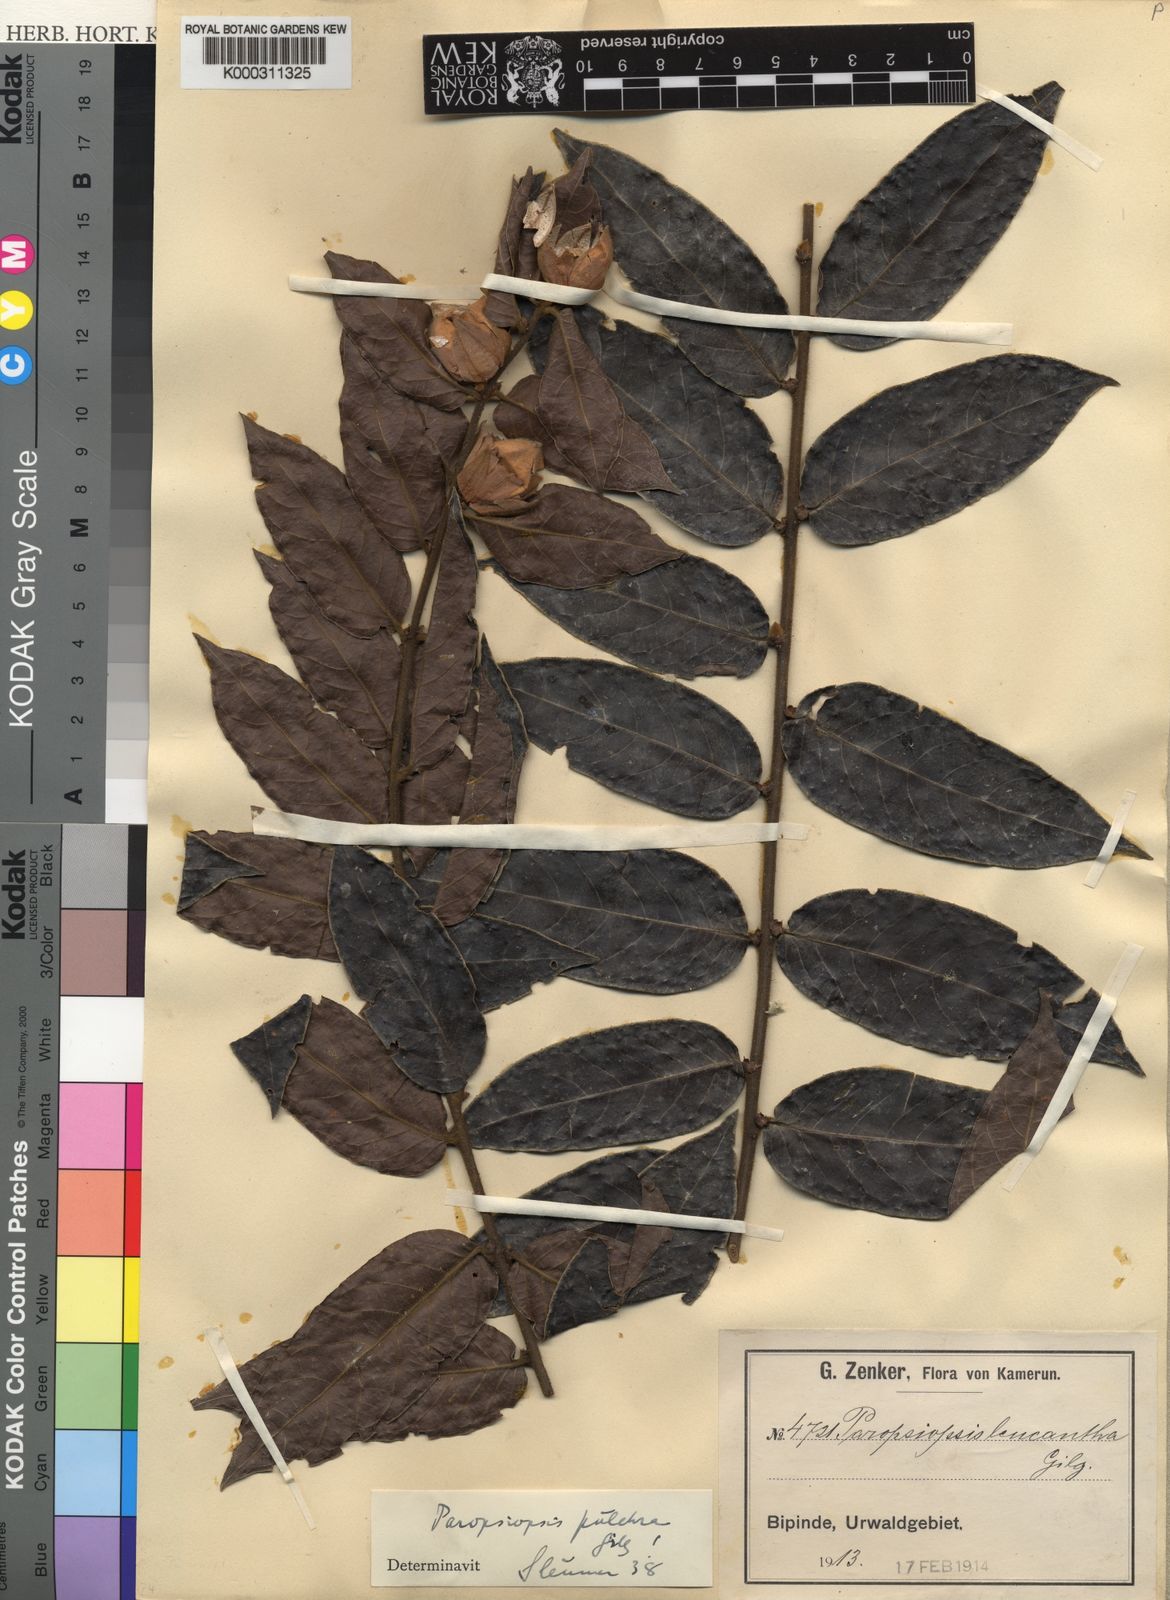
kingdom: Plantae
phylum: Tracheophyta
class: Magnoliopsida
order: Malpighiales
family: Passifloraceae
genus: Paropsiopsis
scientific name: Paropsiopsis pulchra
